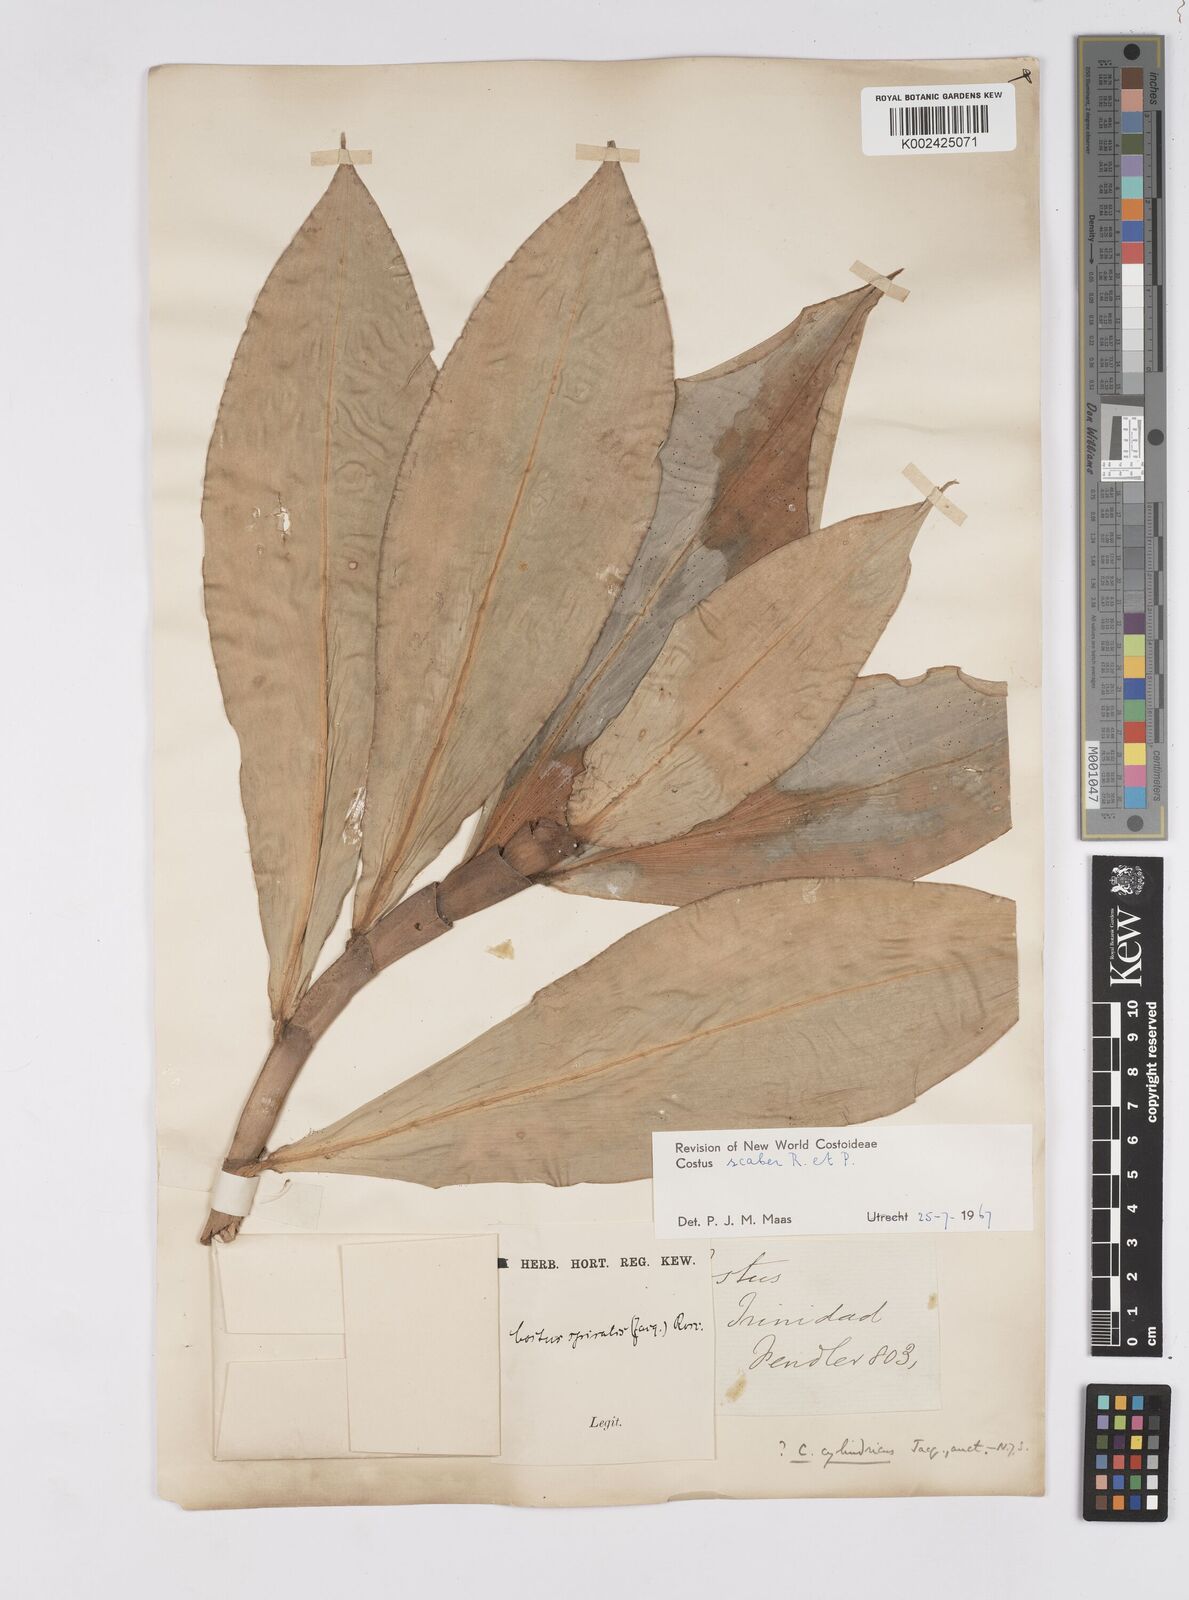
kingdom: Plantae
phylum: Tracheophyta
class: Liliopsida
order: Zingiberales
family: Costaceae
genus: Costus
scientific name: Costus scaber
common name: Spiral head ginger
